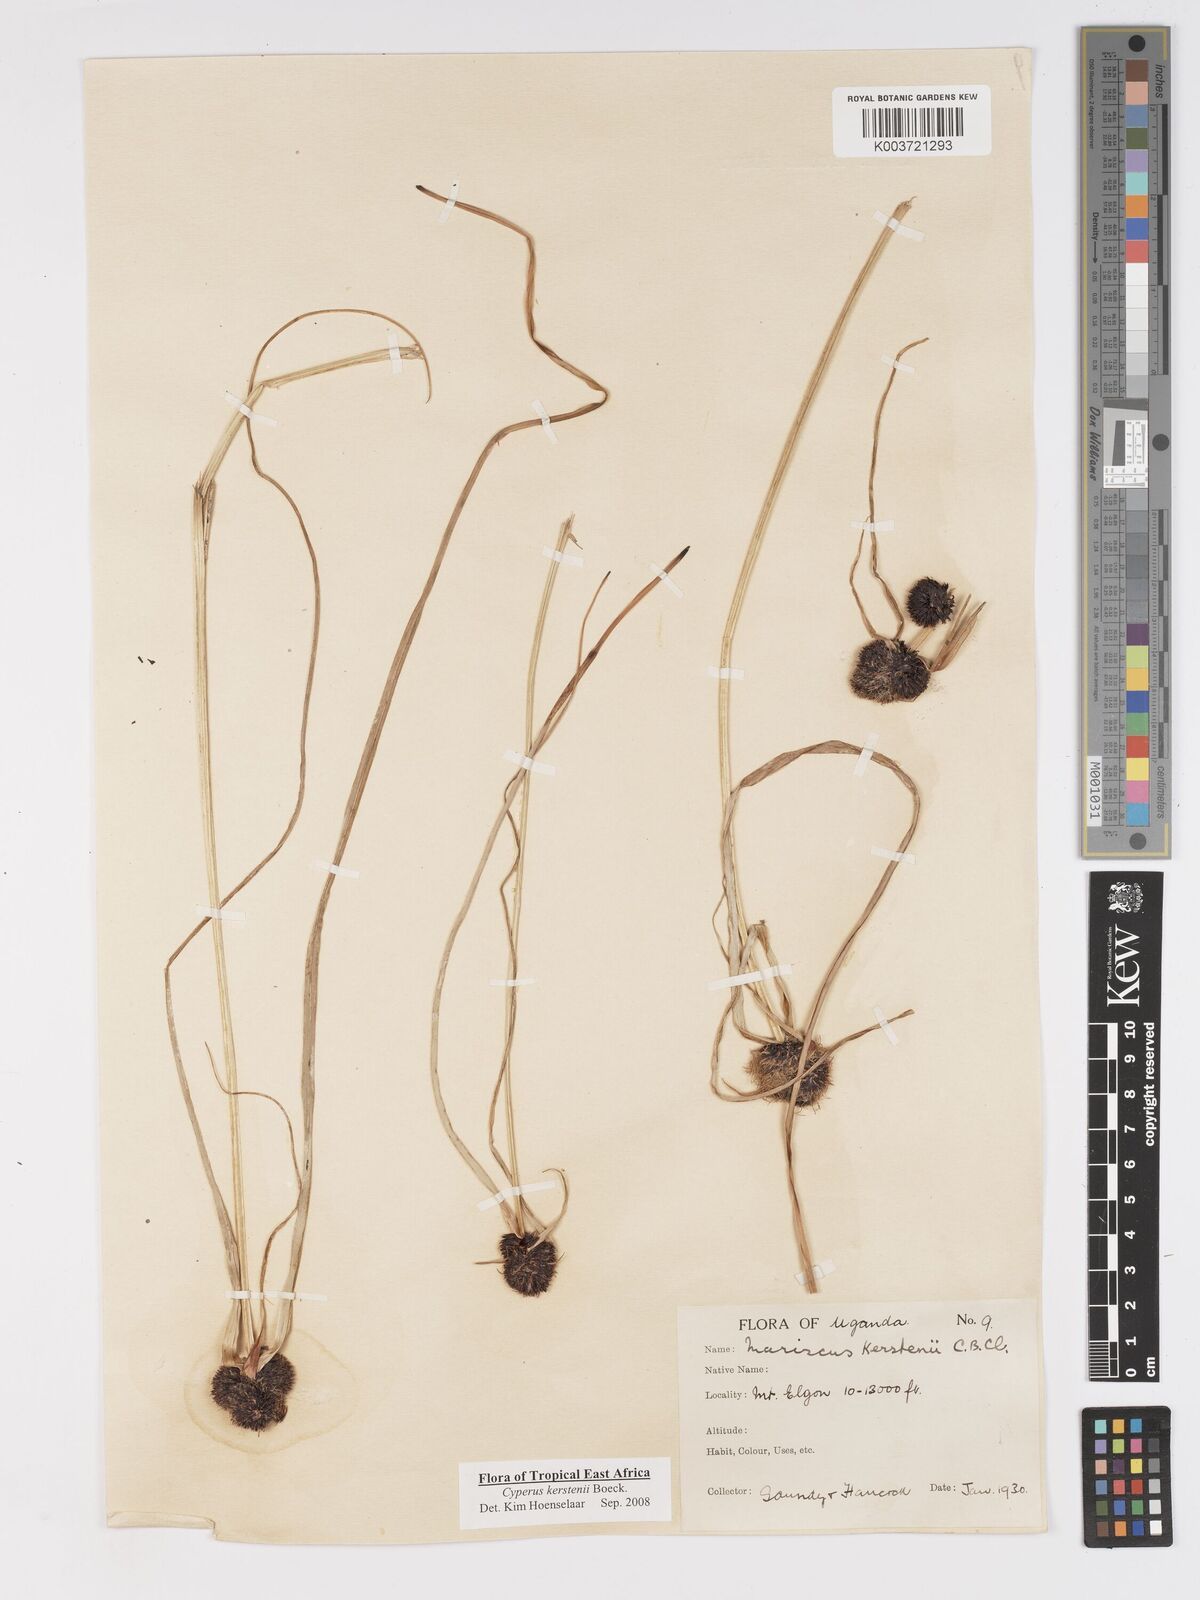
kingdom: Plantae
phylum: Tracheophyta
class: Liliopsida
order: Poales
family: Cyperaceae
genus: Cyperus
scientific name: Cyperus kerstenii
